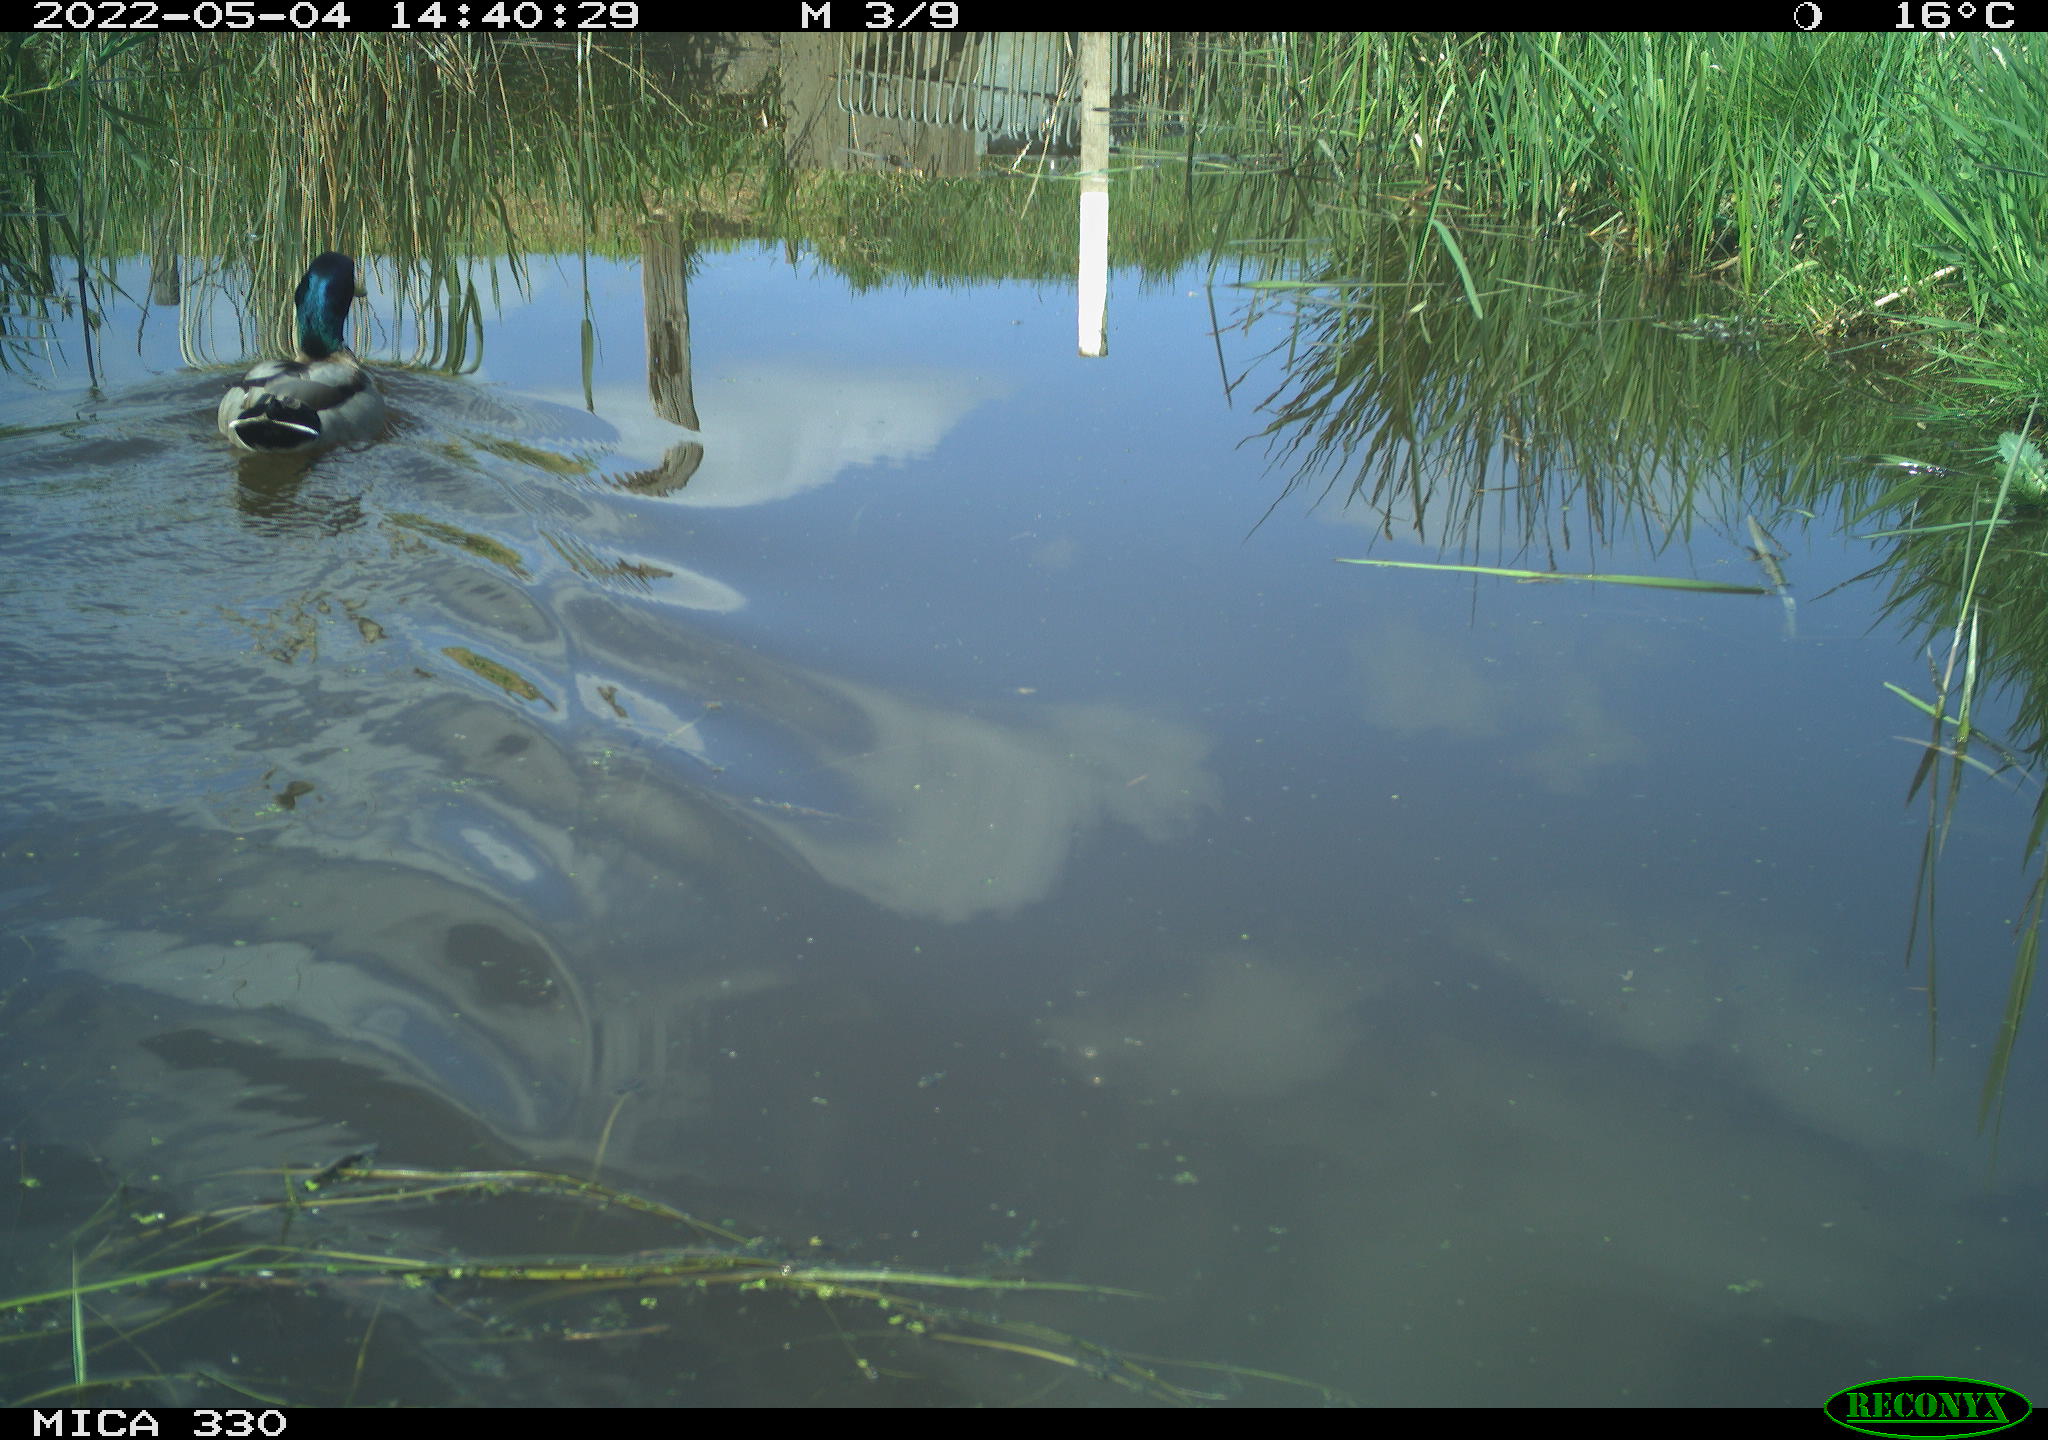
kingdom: Animalia
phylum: Chordata
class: Aves
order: Anseriformes
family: Anatidae
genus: Anas
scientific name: Anas platyrhynchos
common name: Mallard
